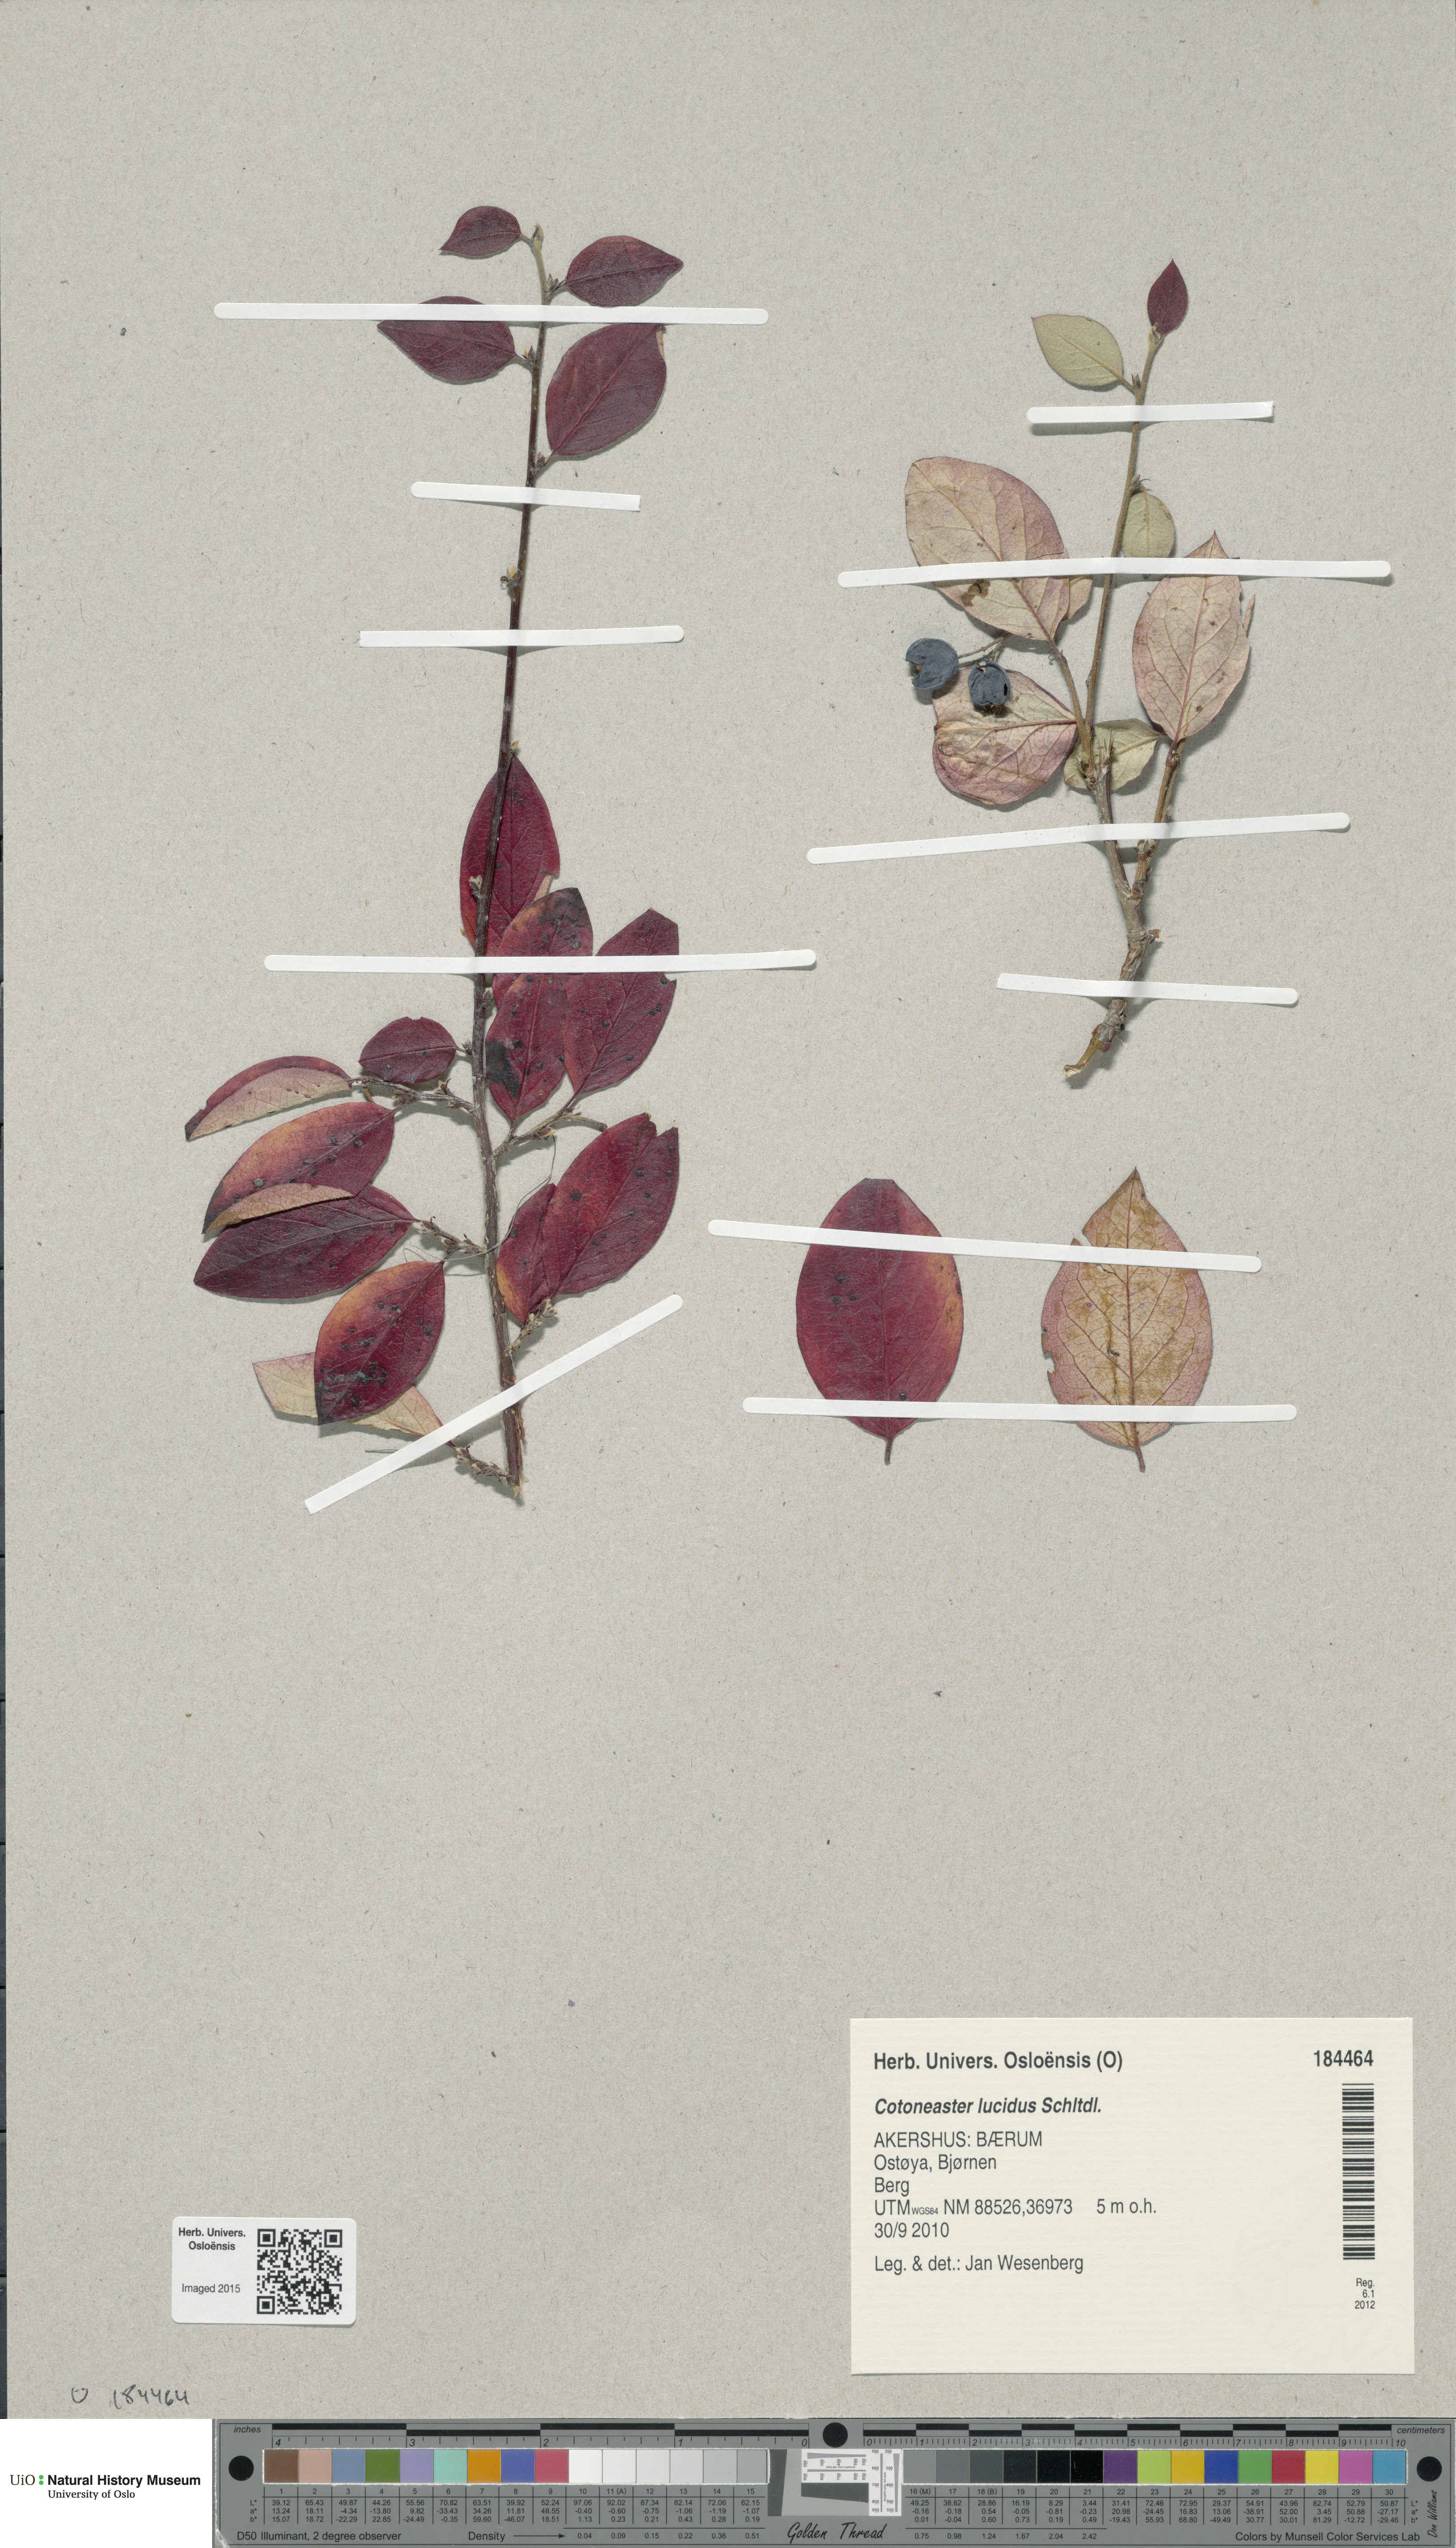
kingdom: Plantae
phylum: Tracheophyta
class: Magnoliopsida
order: Rosales
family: Rosaceae
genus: Cotoneaster
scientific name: Cotoneaster acutifolius
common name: Peking cotoneaster
